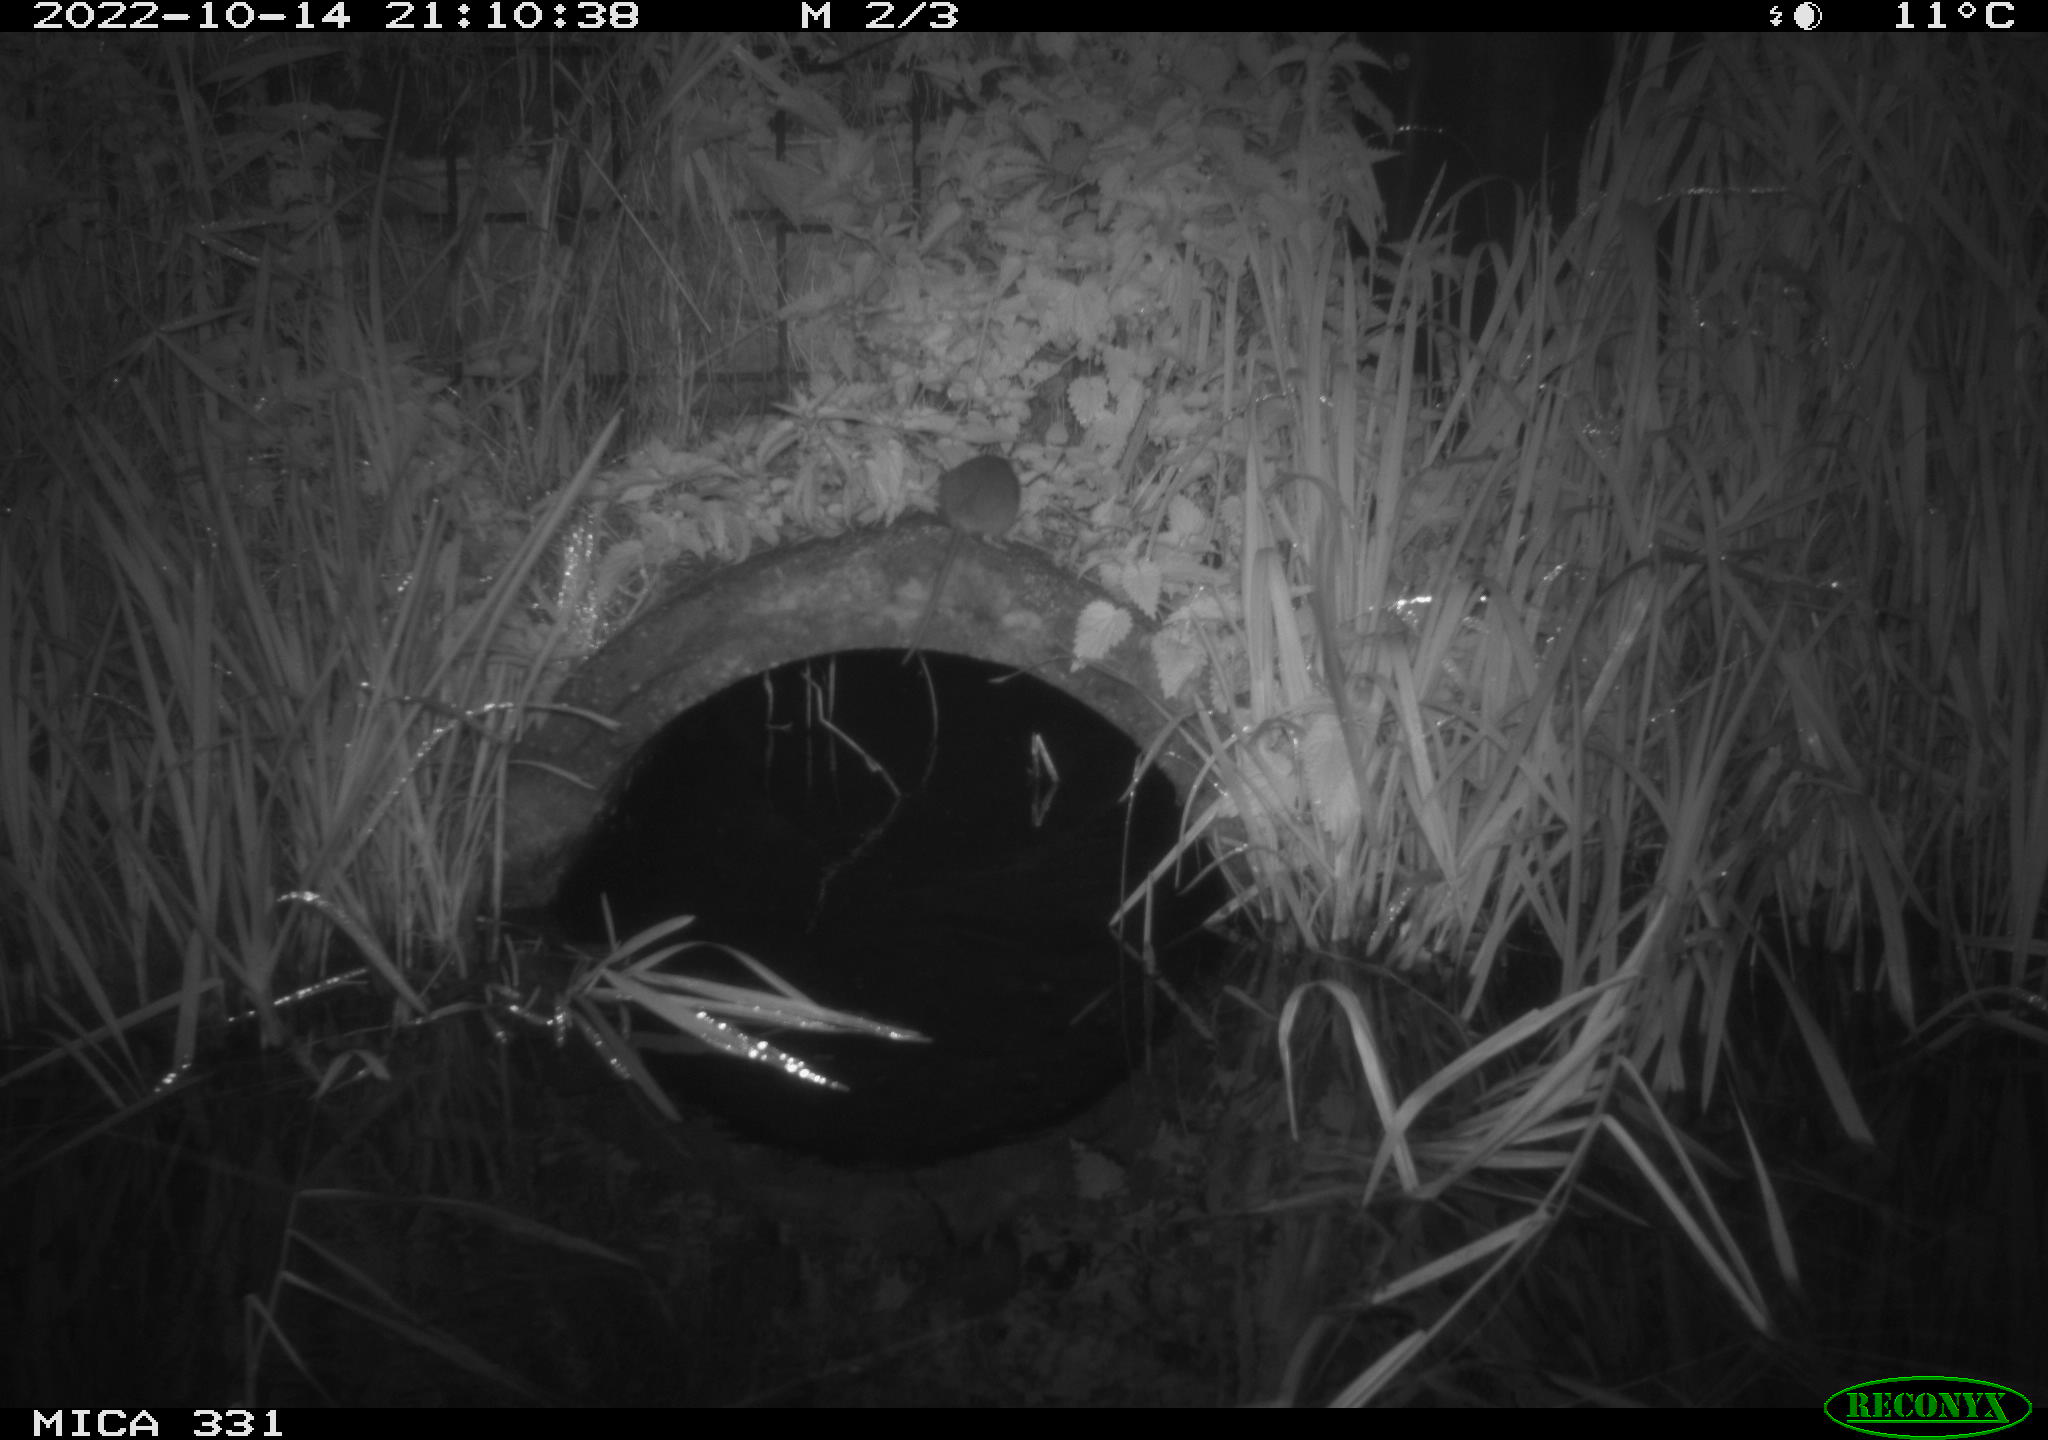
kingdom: Animalia
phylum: Chordata
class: Mammalia
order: Rodentia
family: Muridae
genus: Rattus
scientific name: Rattus norvegicus
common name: Brown rat
